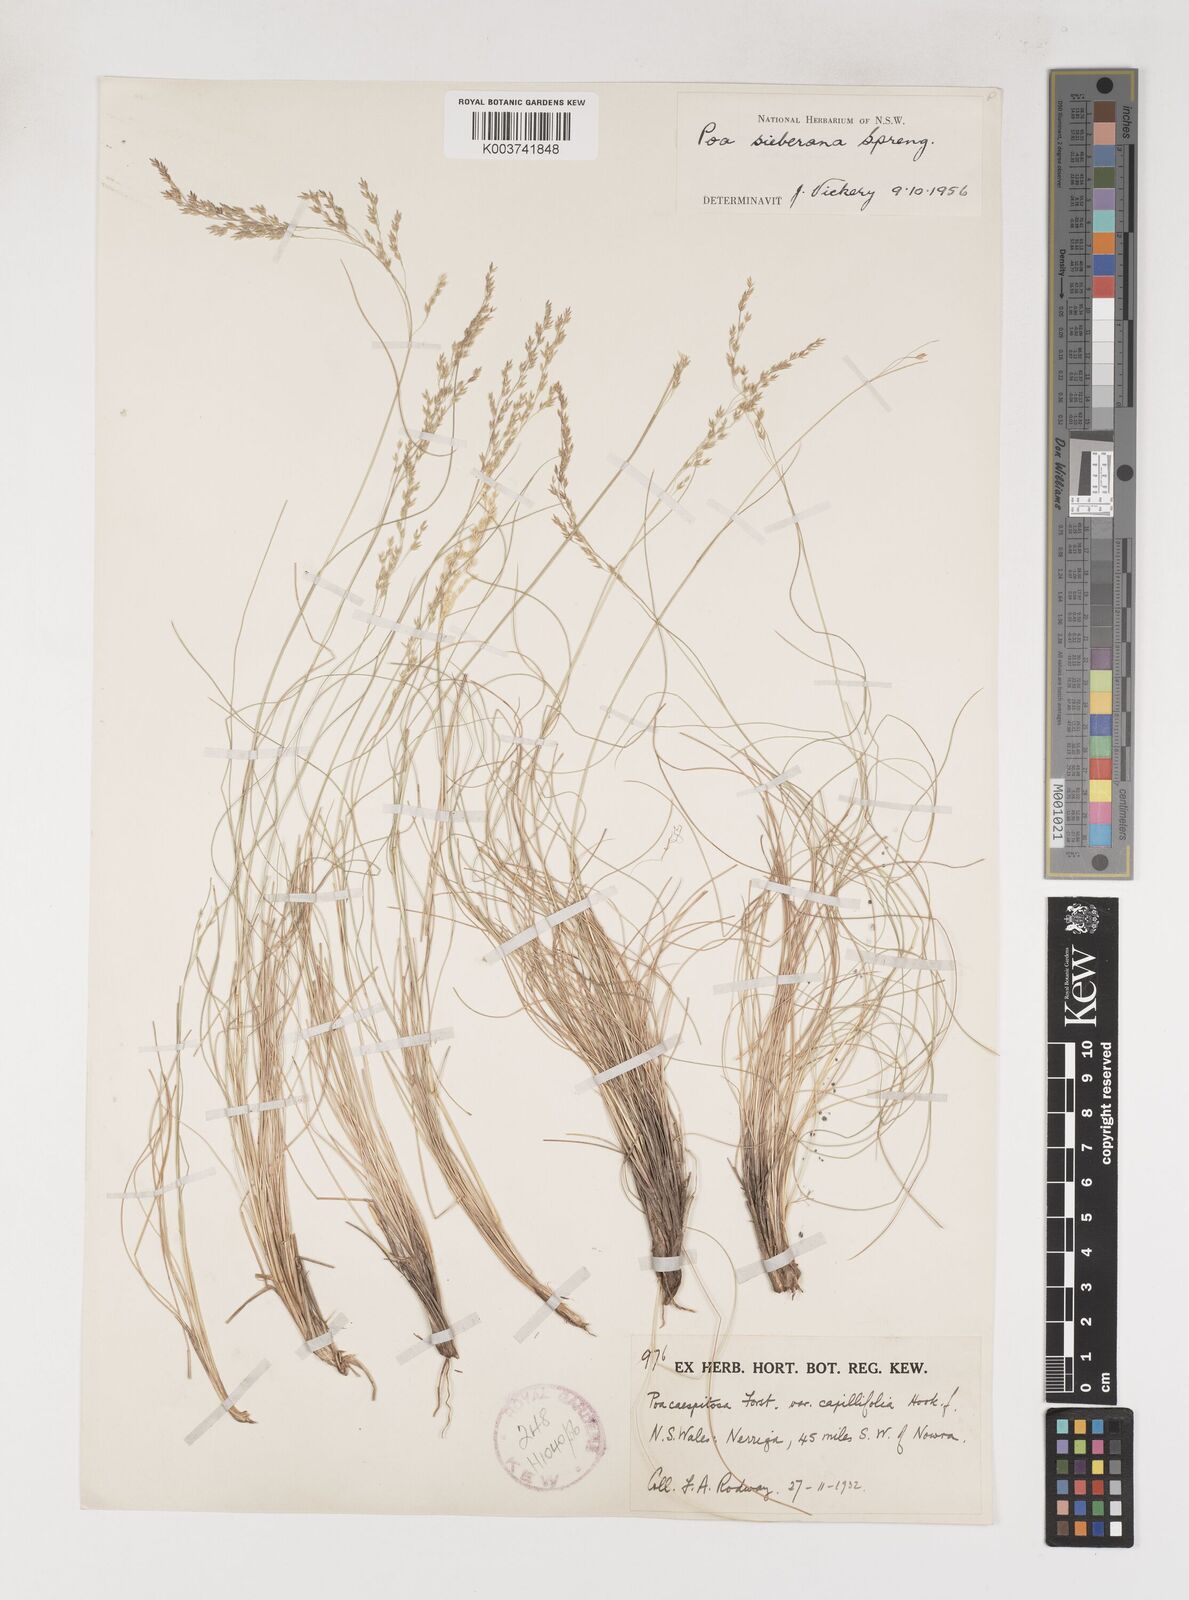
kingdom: Plantae
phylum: Tracheophyta
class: Liliopsida
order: Poales
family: Poaceae
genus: Poa
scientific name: Poa sieberiana
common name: Tussock poa
